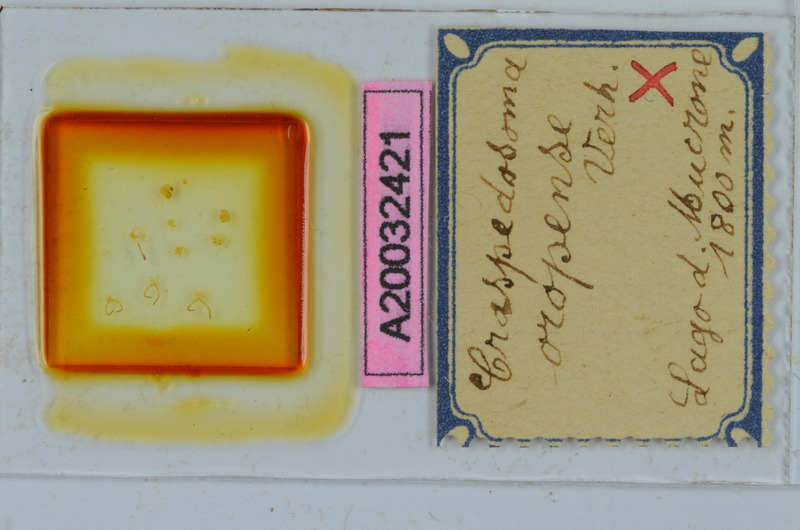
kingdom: Animalia
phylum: Arthropoda
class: Diplopoda
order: Chordeumatida
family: Craspedosomatidae
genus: Craspedosoma
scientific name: Craspedosoma oropense
